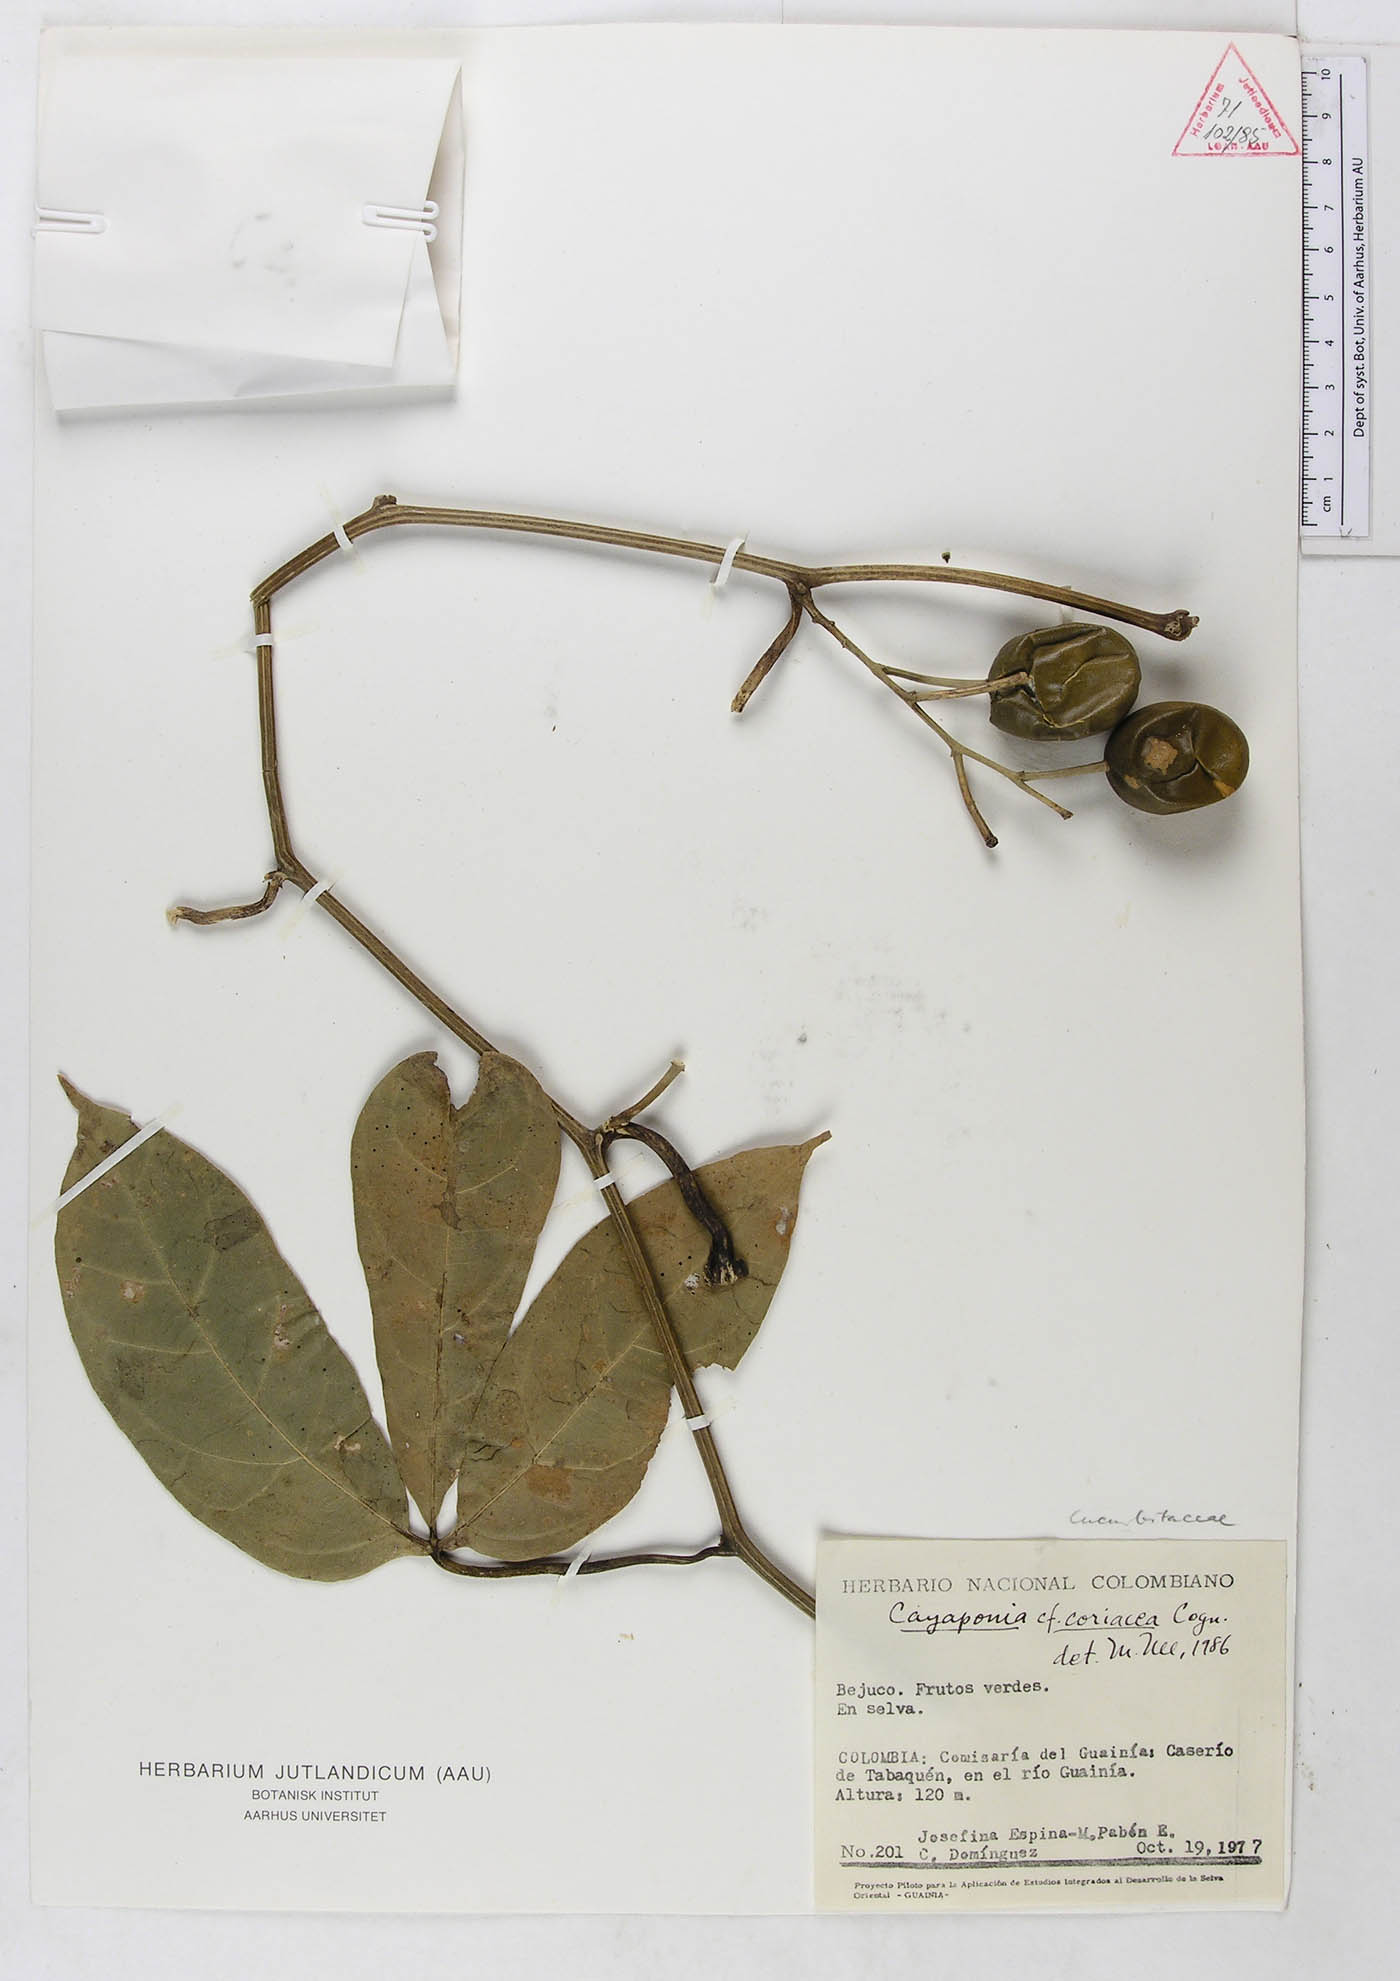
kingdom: Plantae
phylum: Tracheophyta
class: Magnoliopsida
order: Cucurbitales
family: Cucurbitaceae
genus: Cayaponia
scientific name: Cayaponia coriacea
